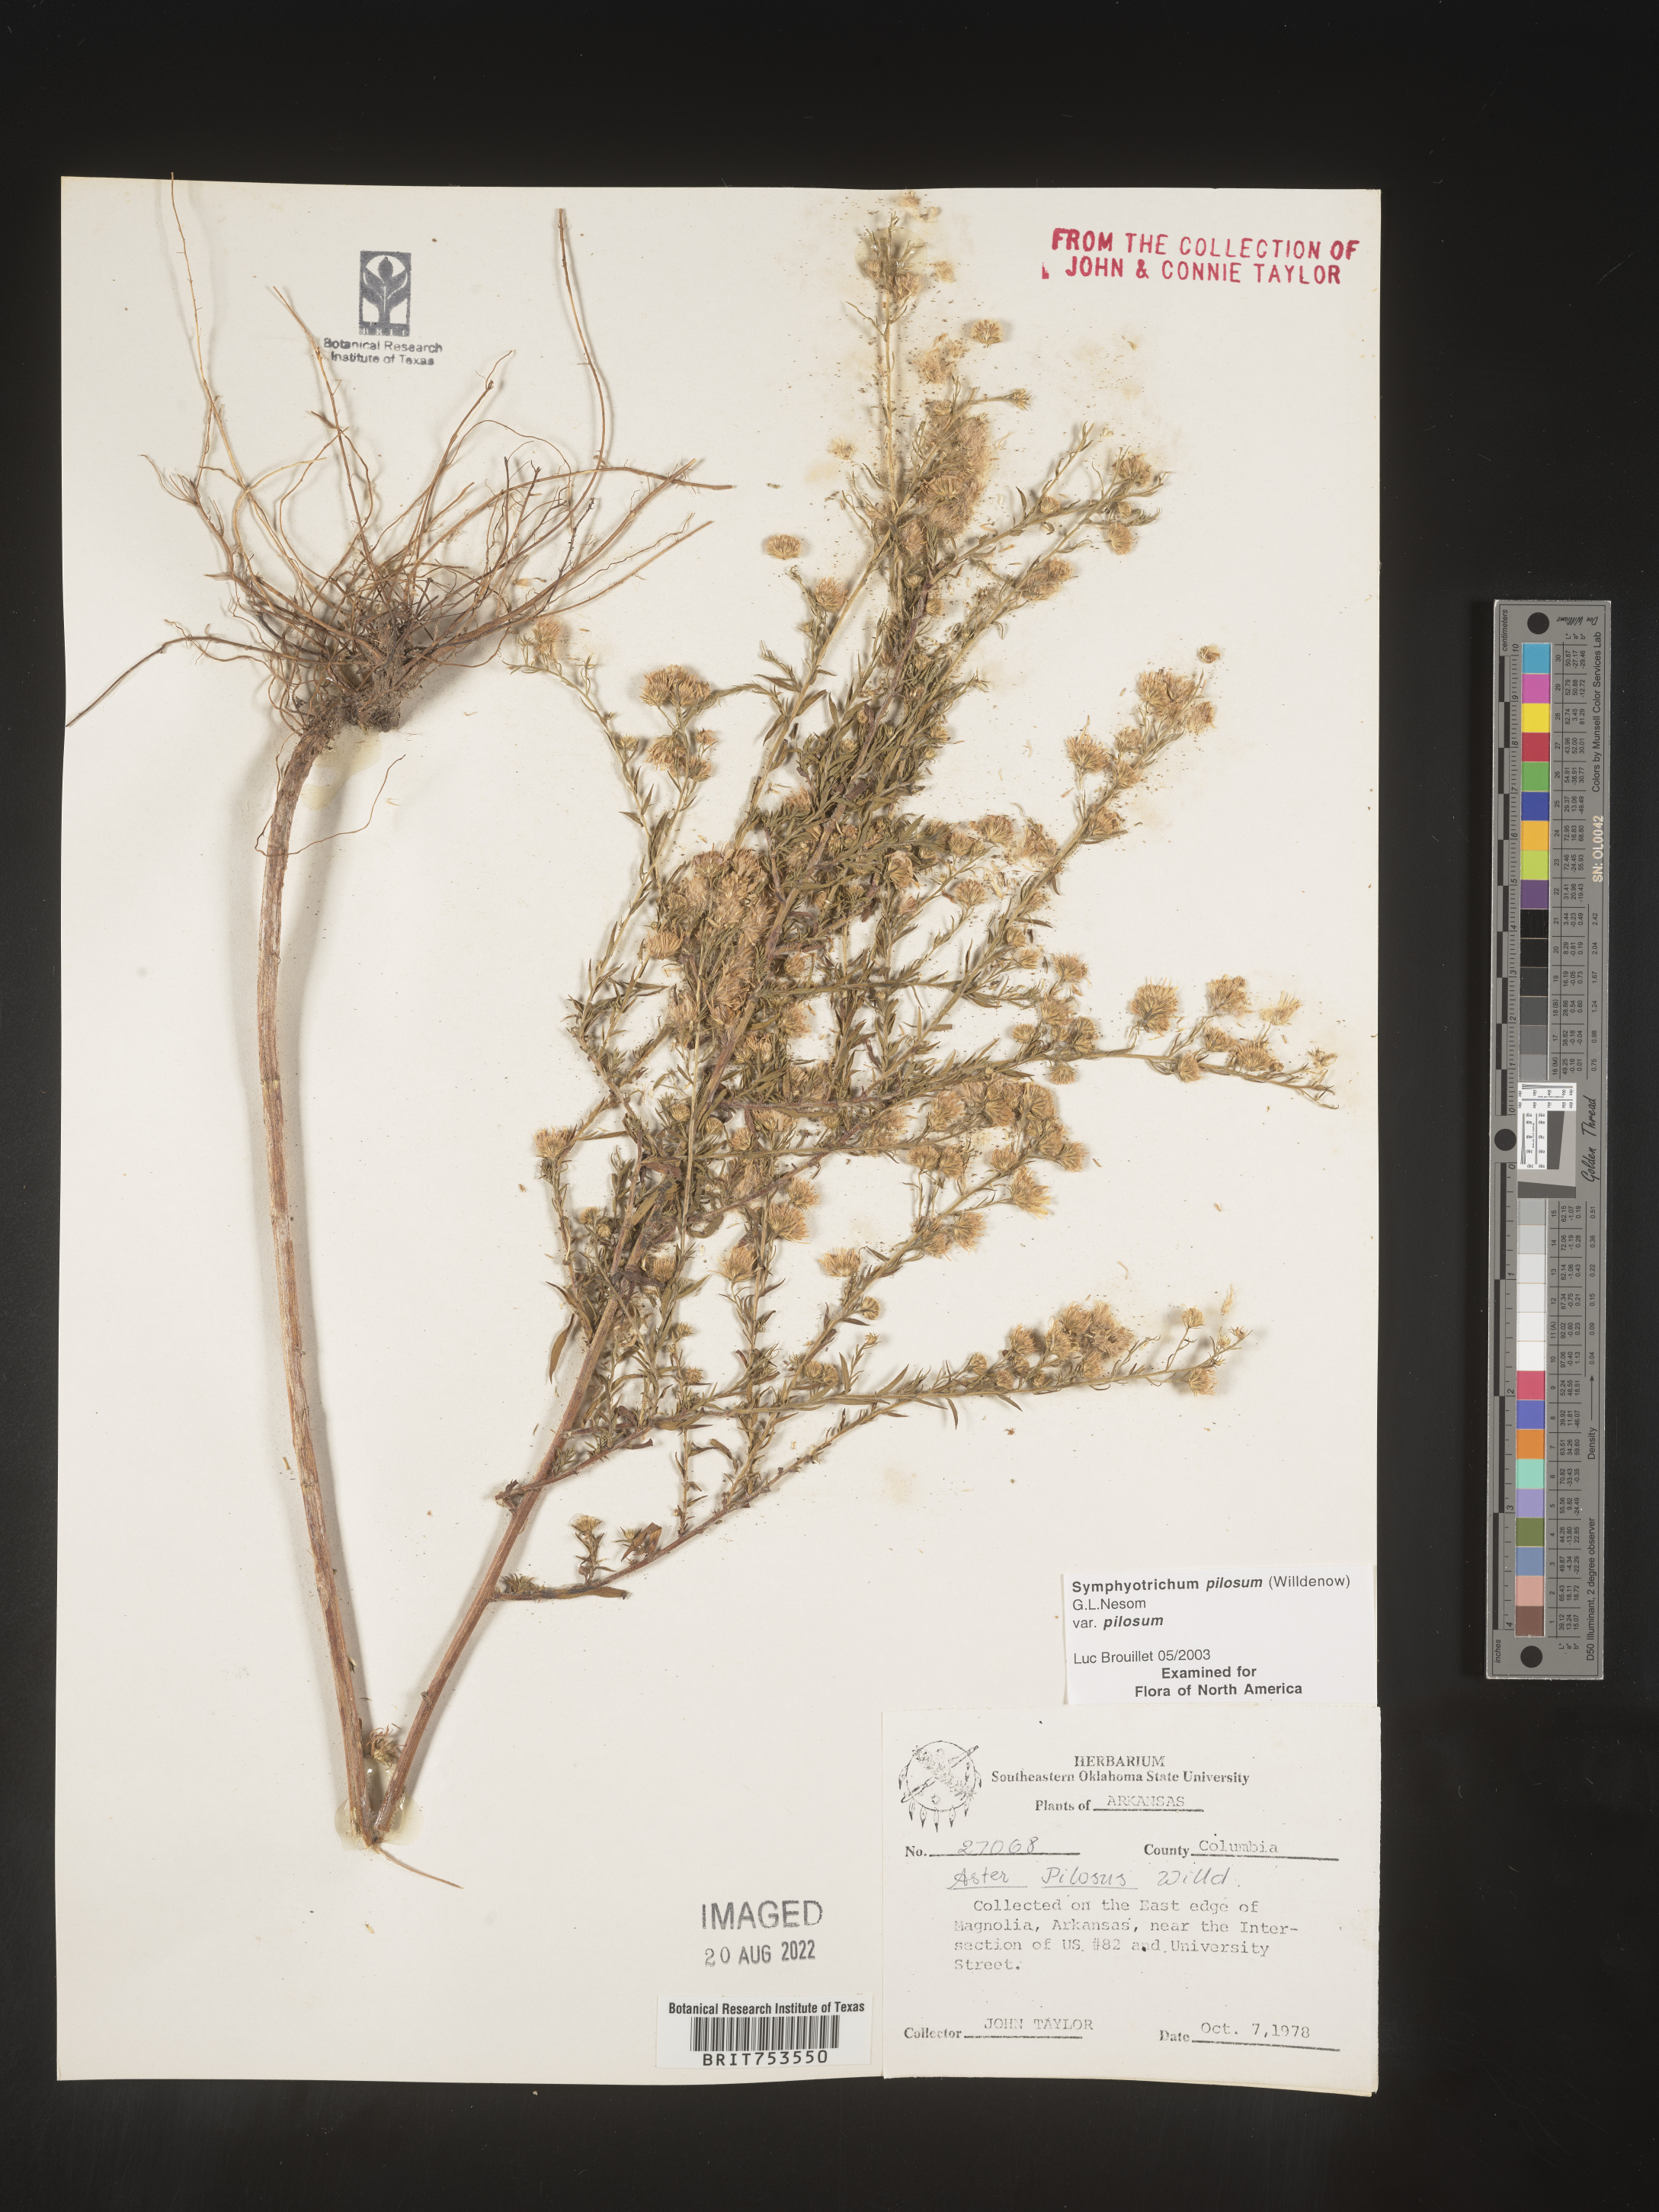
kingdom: Plantae
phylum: Tracheophyta
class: Magnoliopsida
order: Asterales
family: Asteraceae
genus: Symphyotrichum
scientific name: Symphyotrichum pilosum
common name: Awl aster
